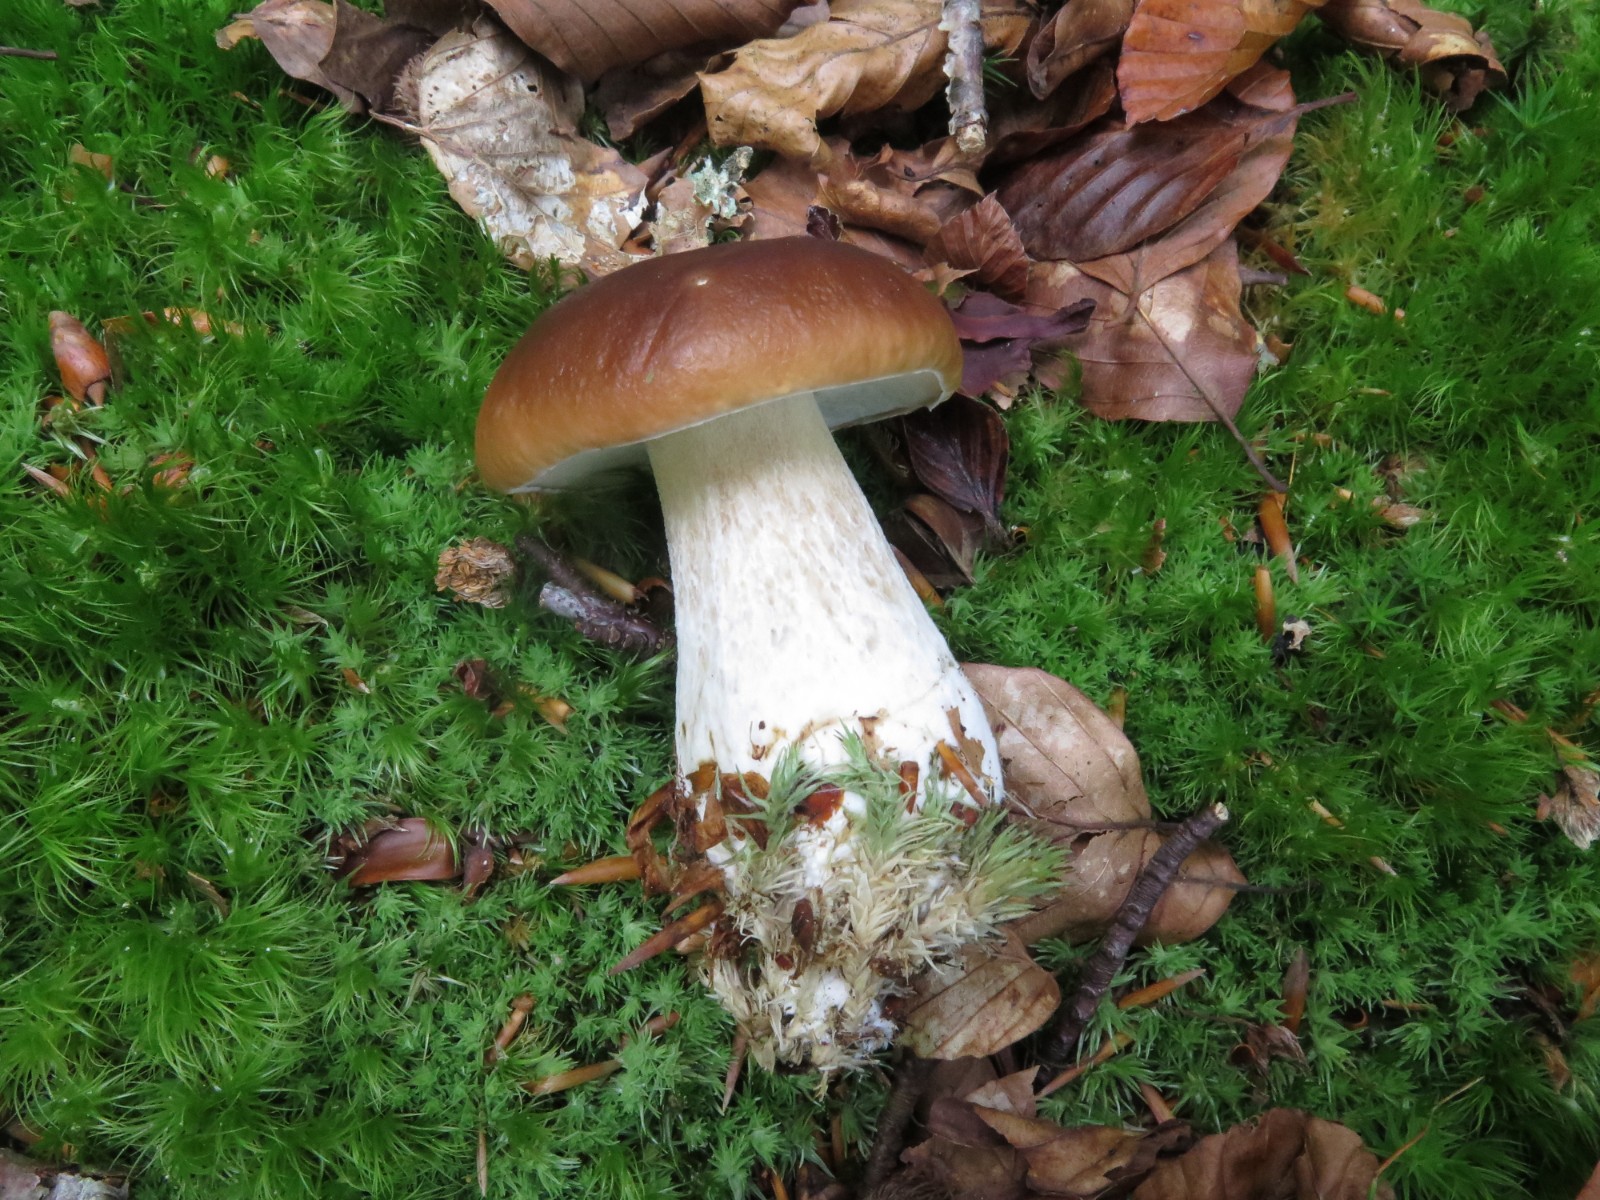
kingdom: Fungi
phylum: Basidiomycota
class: Agaricomycetes
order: Boletales
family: Boletaceae
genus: Boletus
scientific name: Boletus edulis
